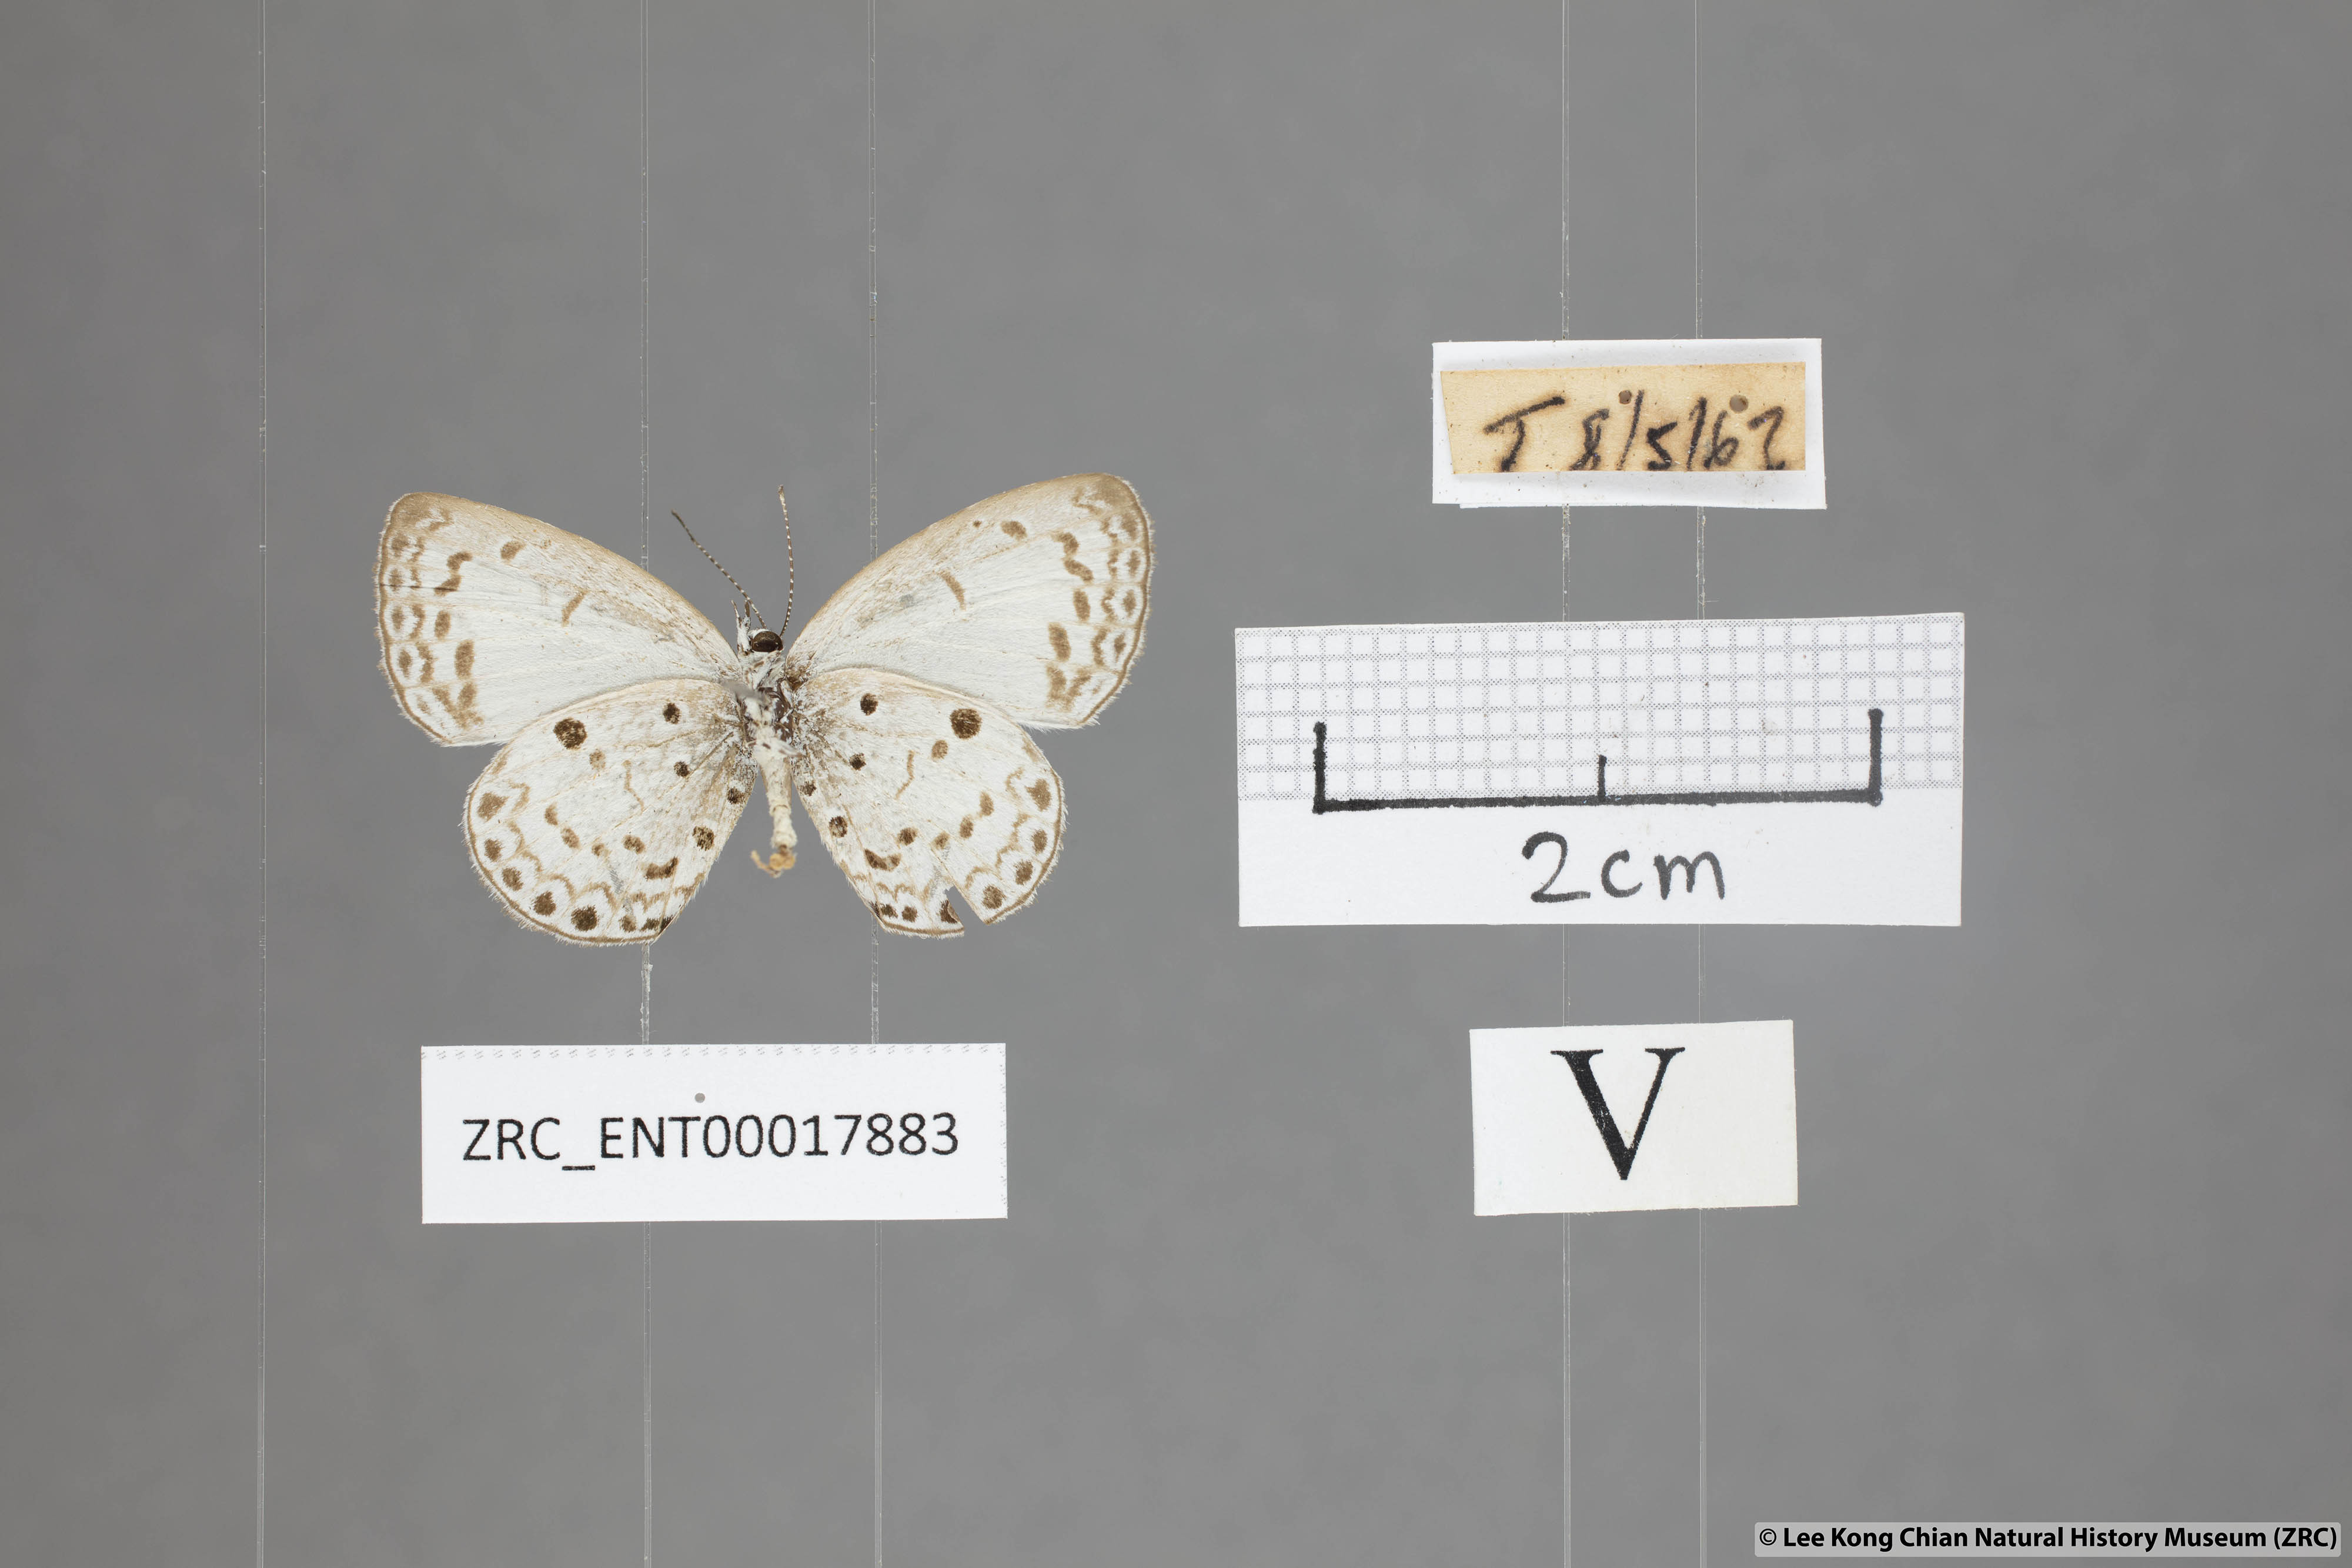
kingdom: Animalia
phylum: Arthropoda
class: Insecta
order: Lepidoptera
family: Lycaenidae
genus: Acytolepis
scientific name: Acytolepis puspa
